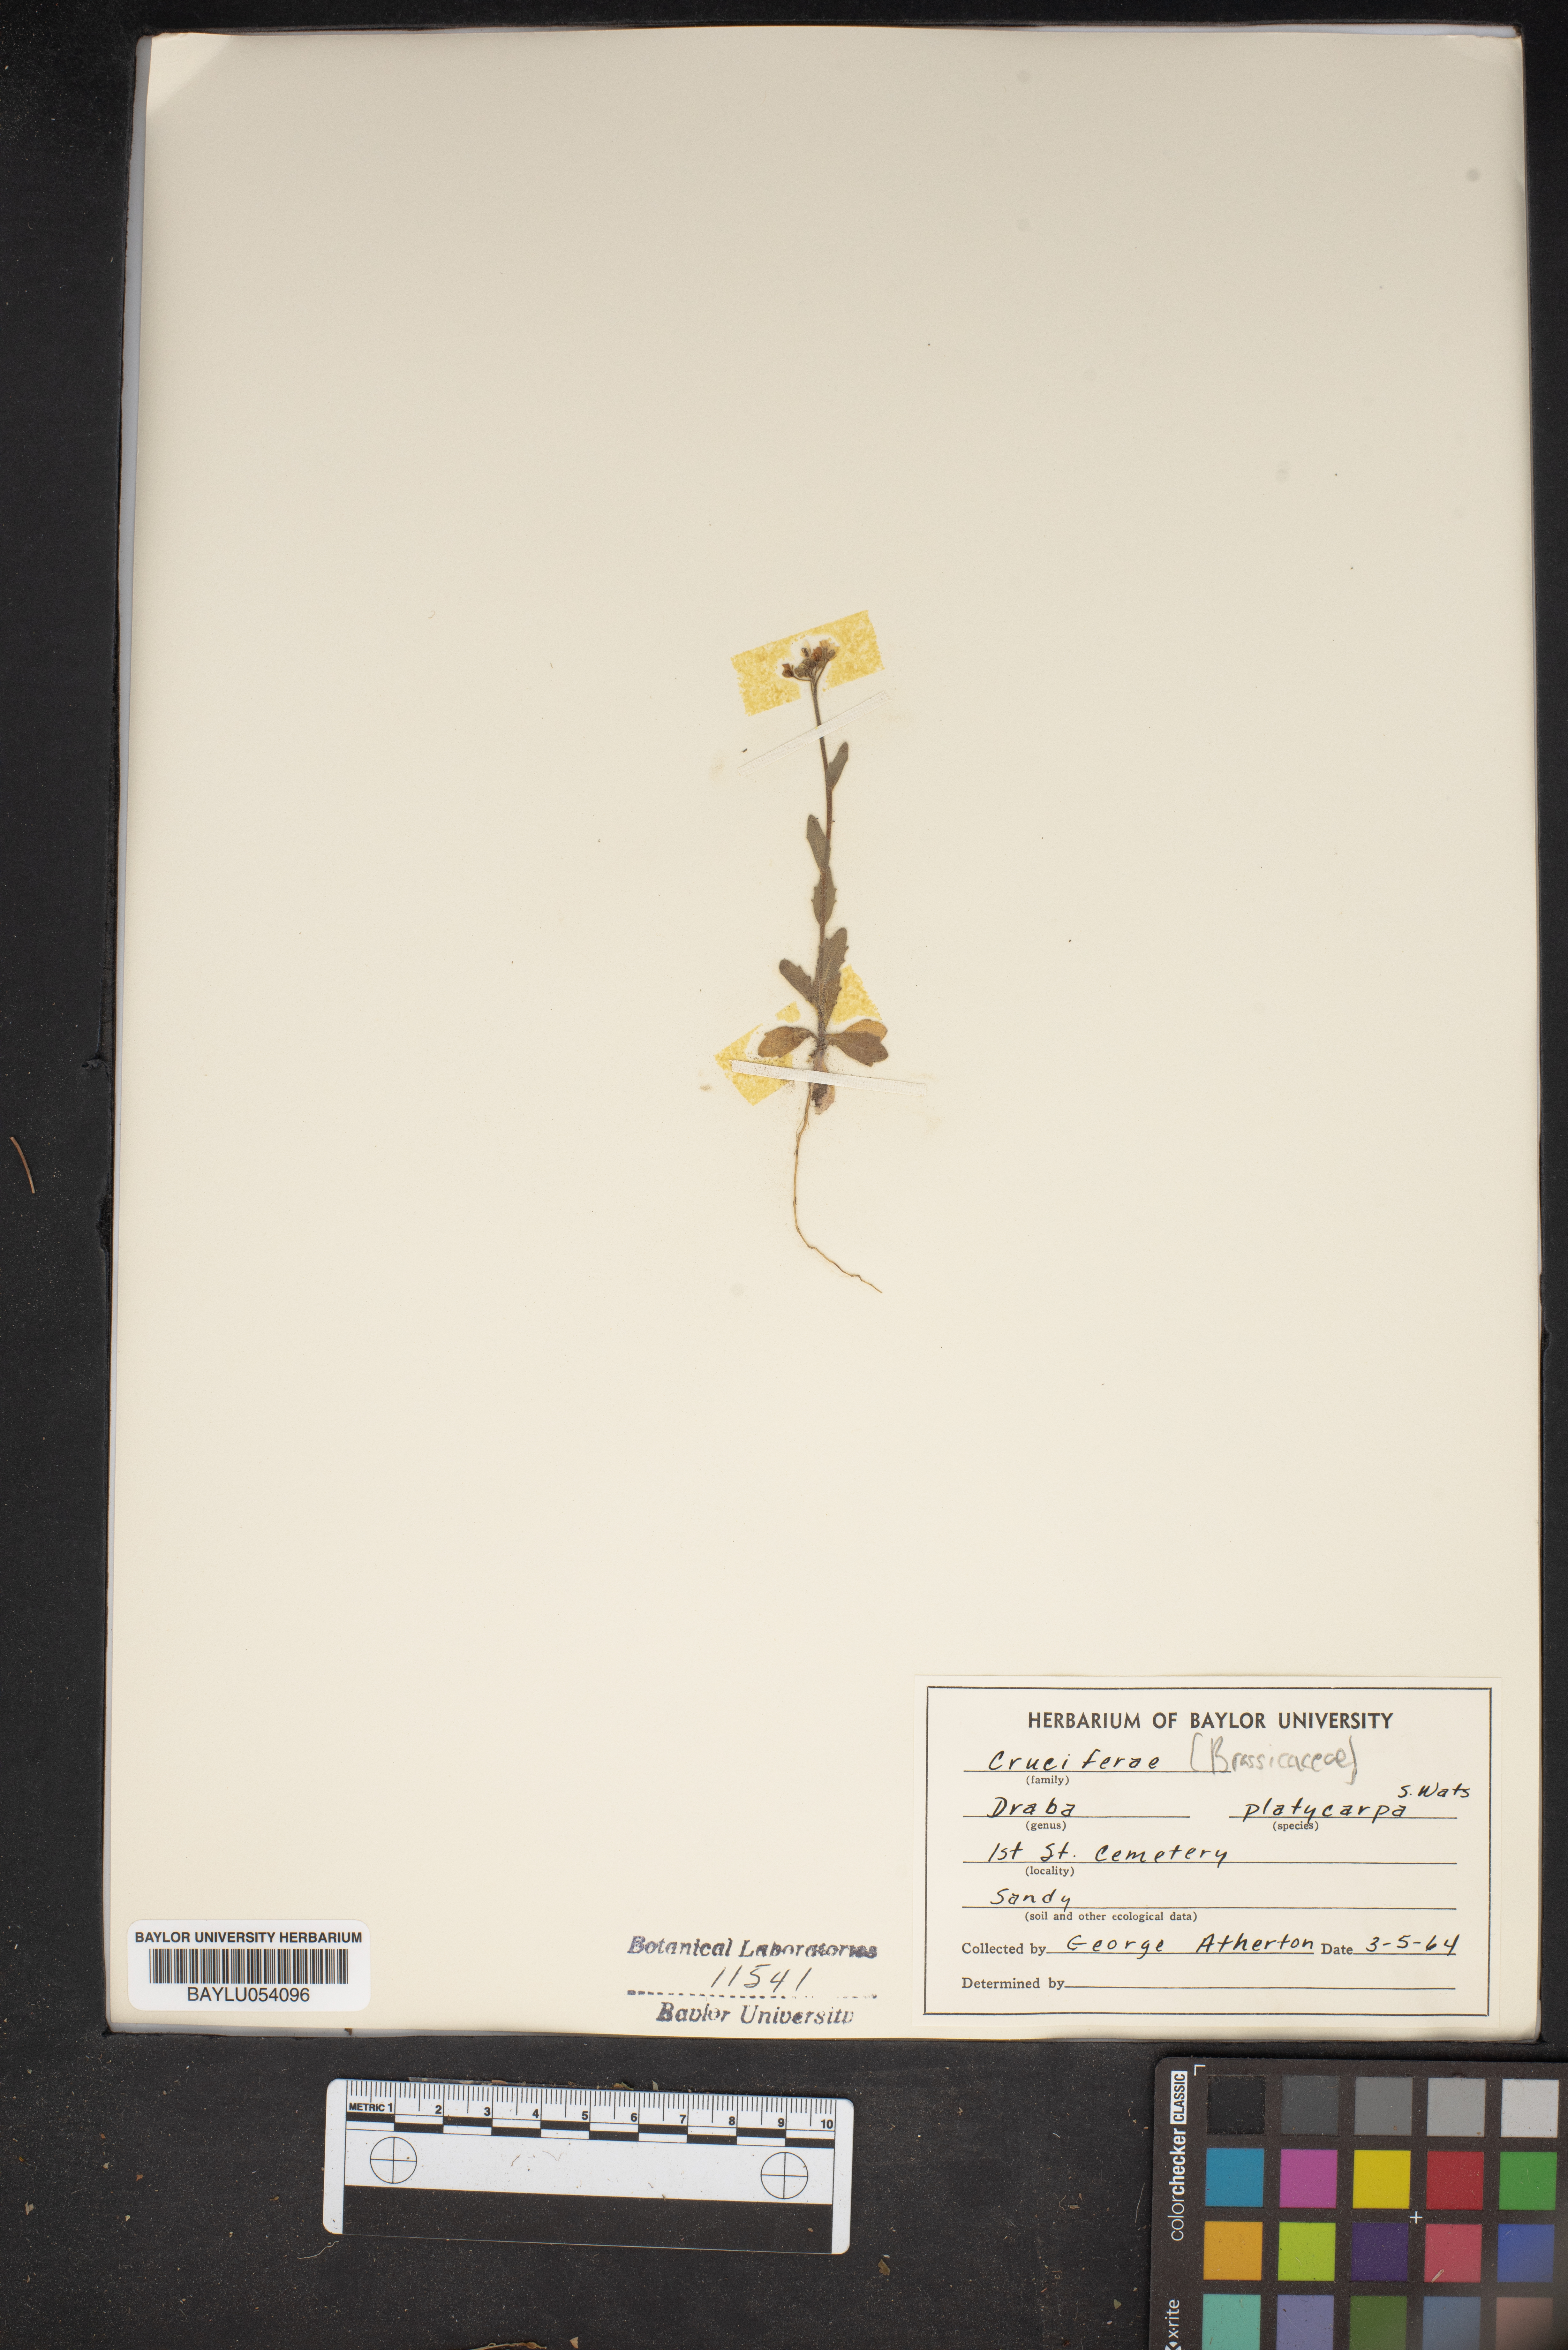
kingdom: Plantae
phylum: Tracheophyta
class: Magnoliopsida
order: Brassicales
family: Brassicaceae
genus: Tomostima
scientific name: Tomostima platycarpa
